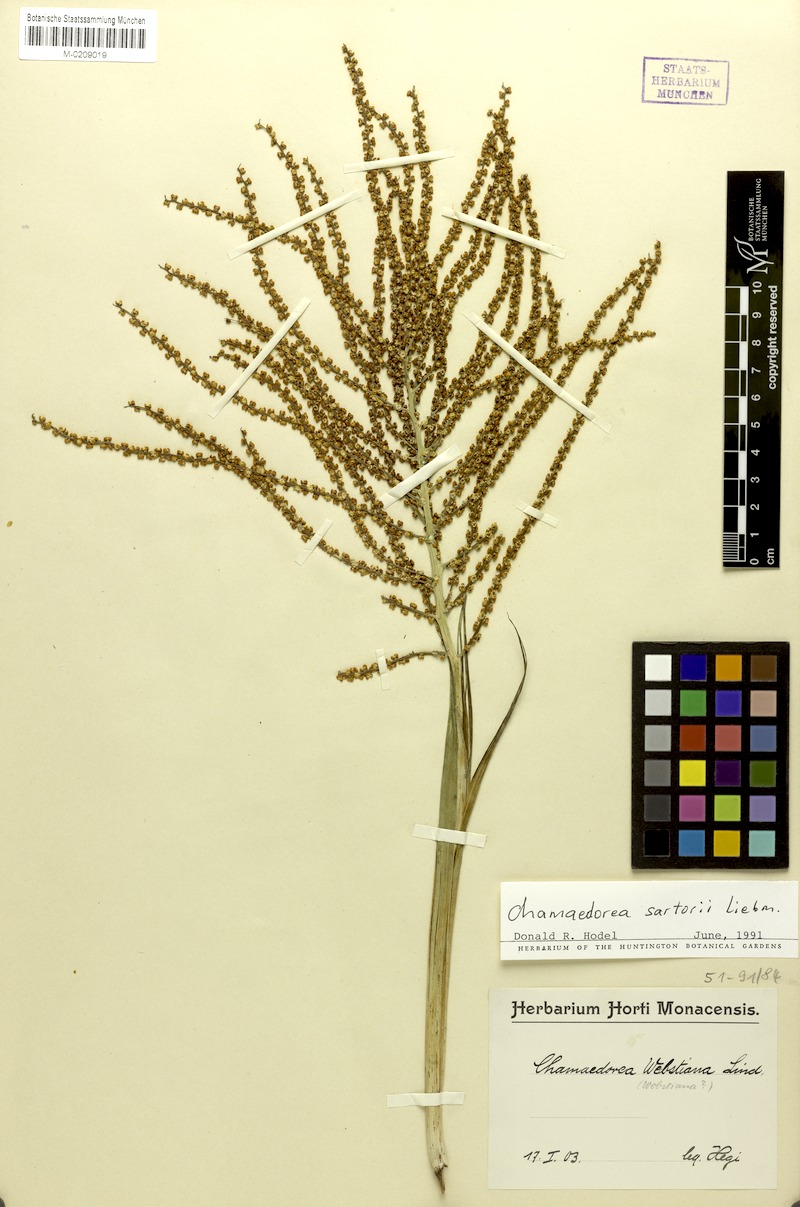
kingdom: Plantae
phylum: Tracheophyta
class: Liliopsida
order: Arecales
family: Arecaceae
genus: Chamaedorea
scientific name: Chamaedorea sartorii
